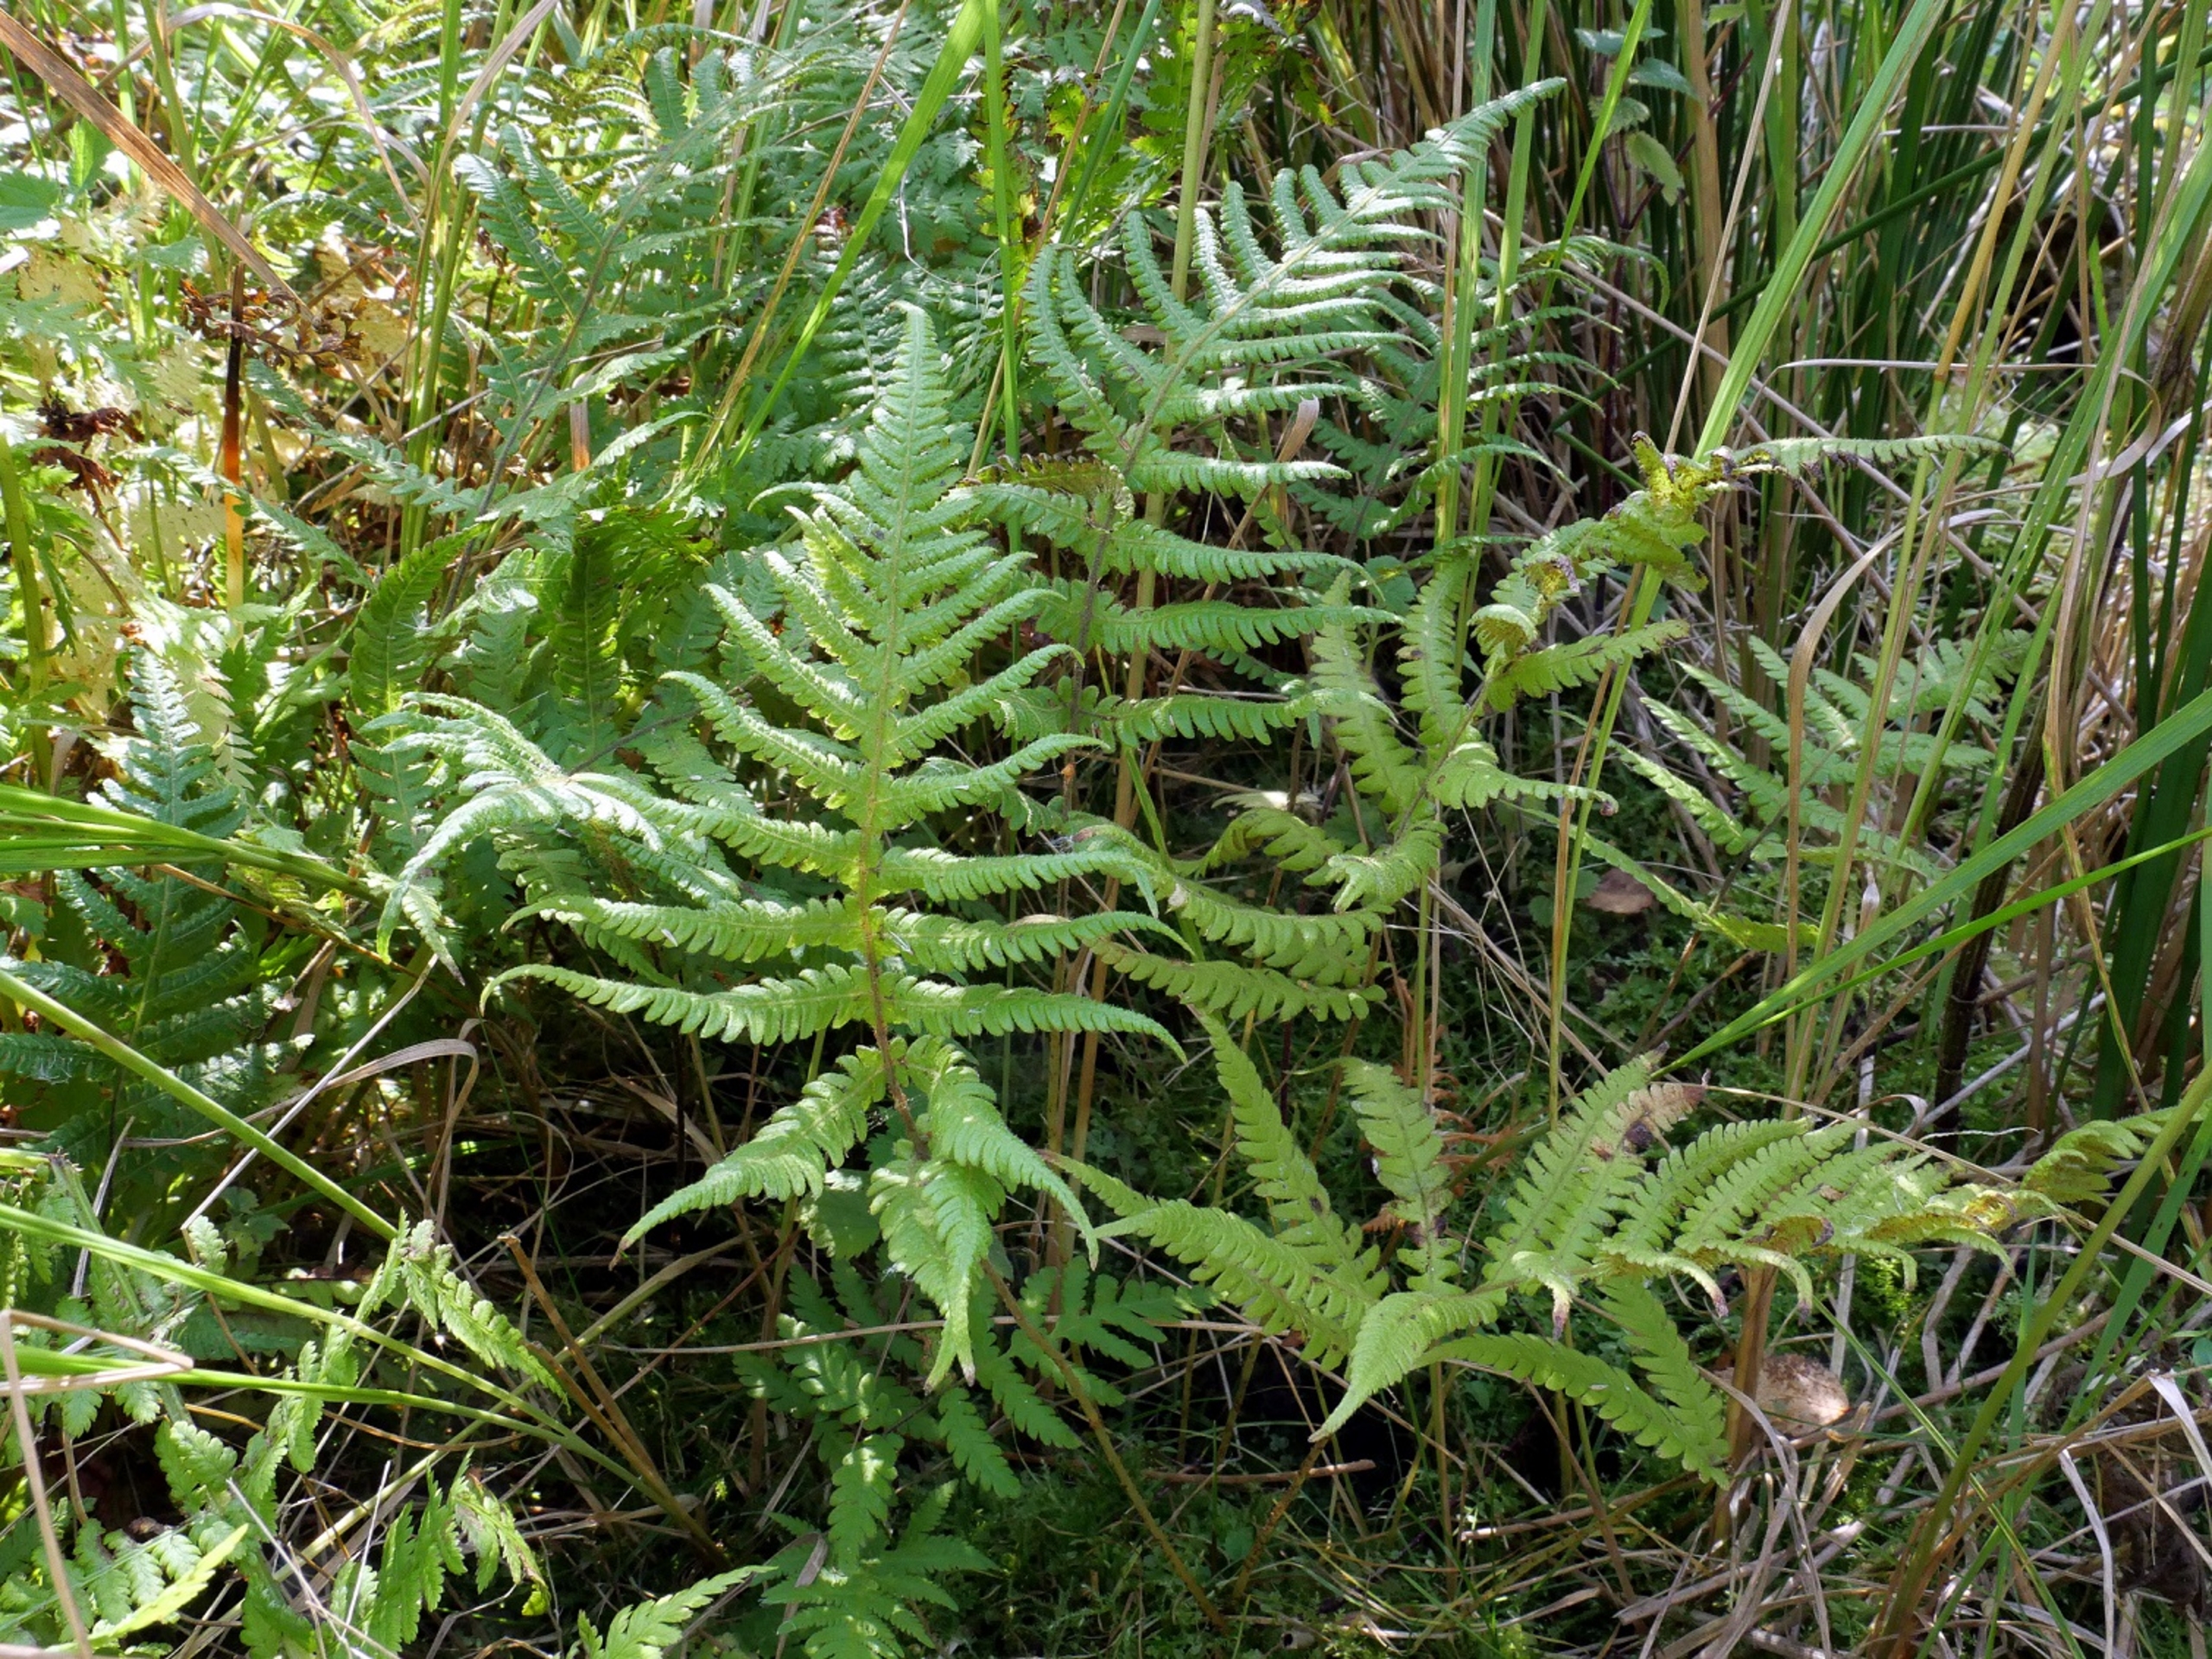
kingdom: Plantae
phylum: Tracheophyta
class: Polypodiopsida
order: Polypodiales
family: Thelypteridaceae
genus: Phegopteris
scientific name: Phegopteris connectilis
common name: Dunet egebregne
